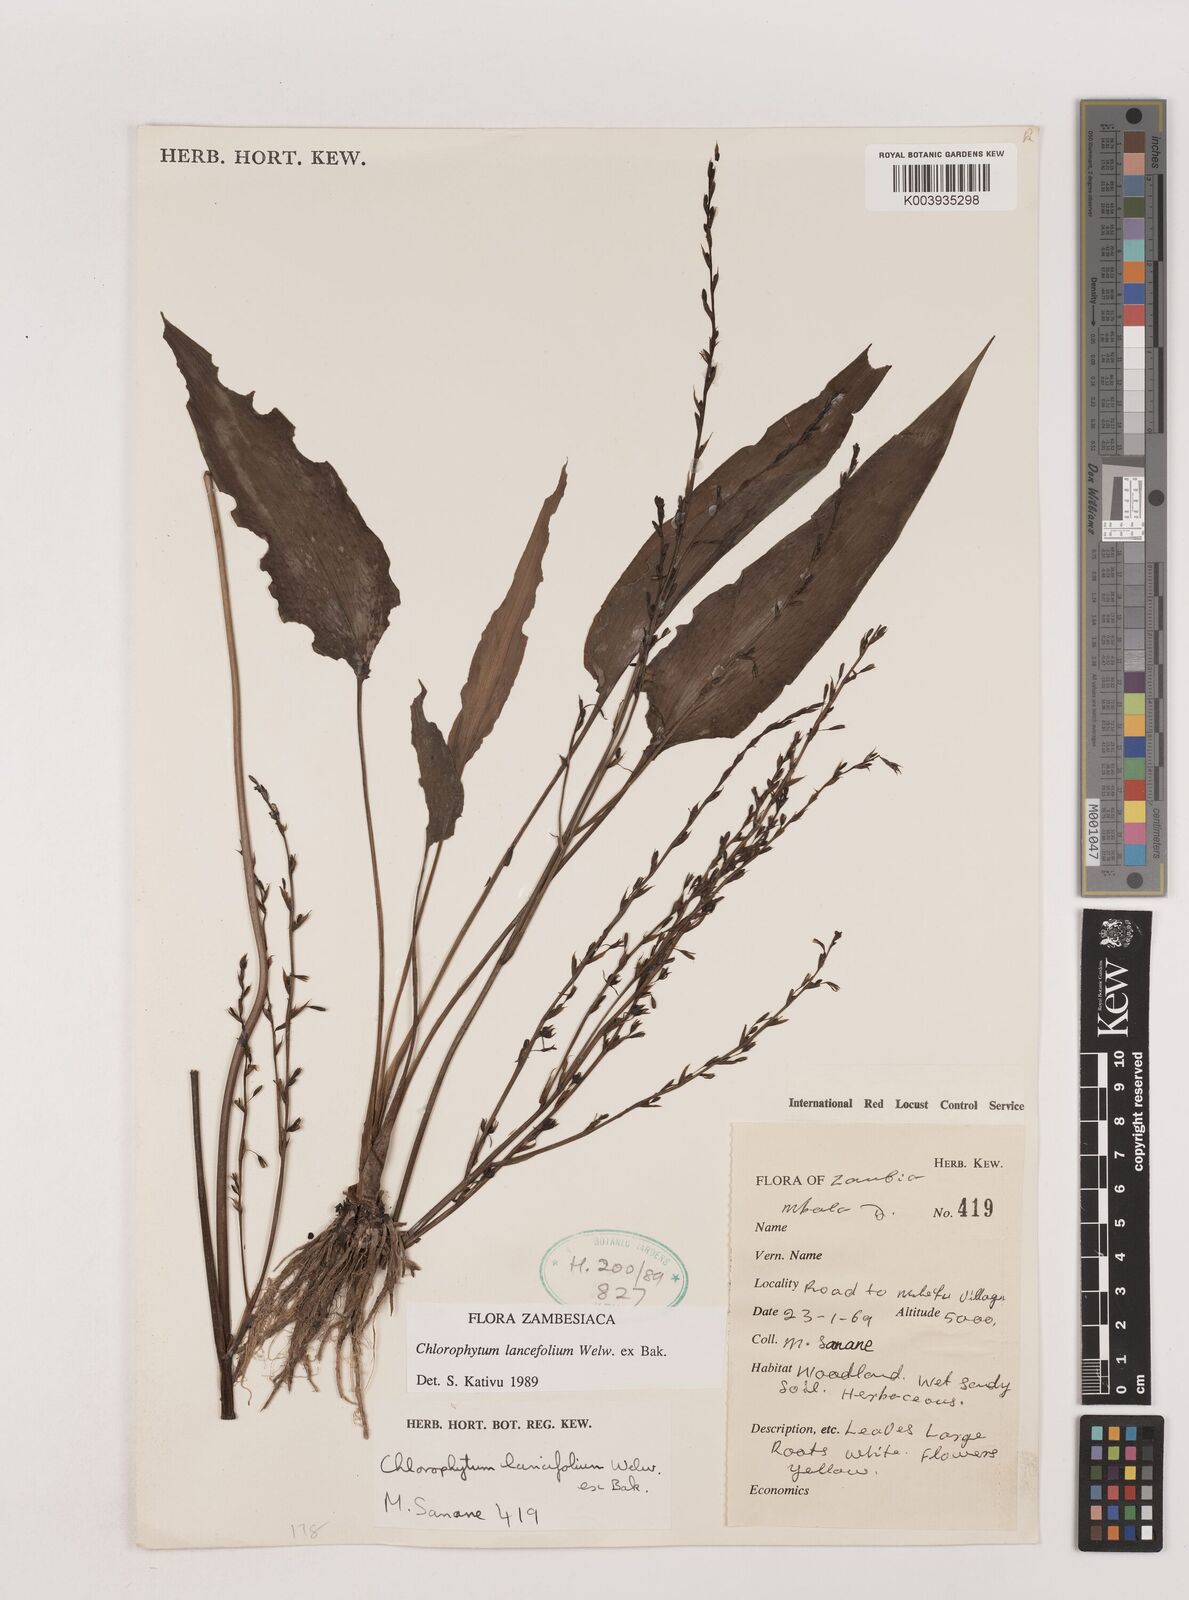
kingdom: Plantae
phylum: Tracheophyta
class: Liliopsida
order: Asparagales
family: Asparagaceae
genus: Chlorophytum
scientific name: Chlorophytum lancifolium
